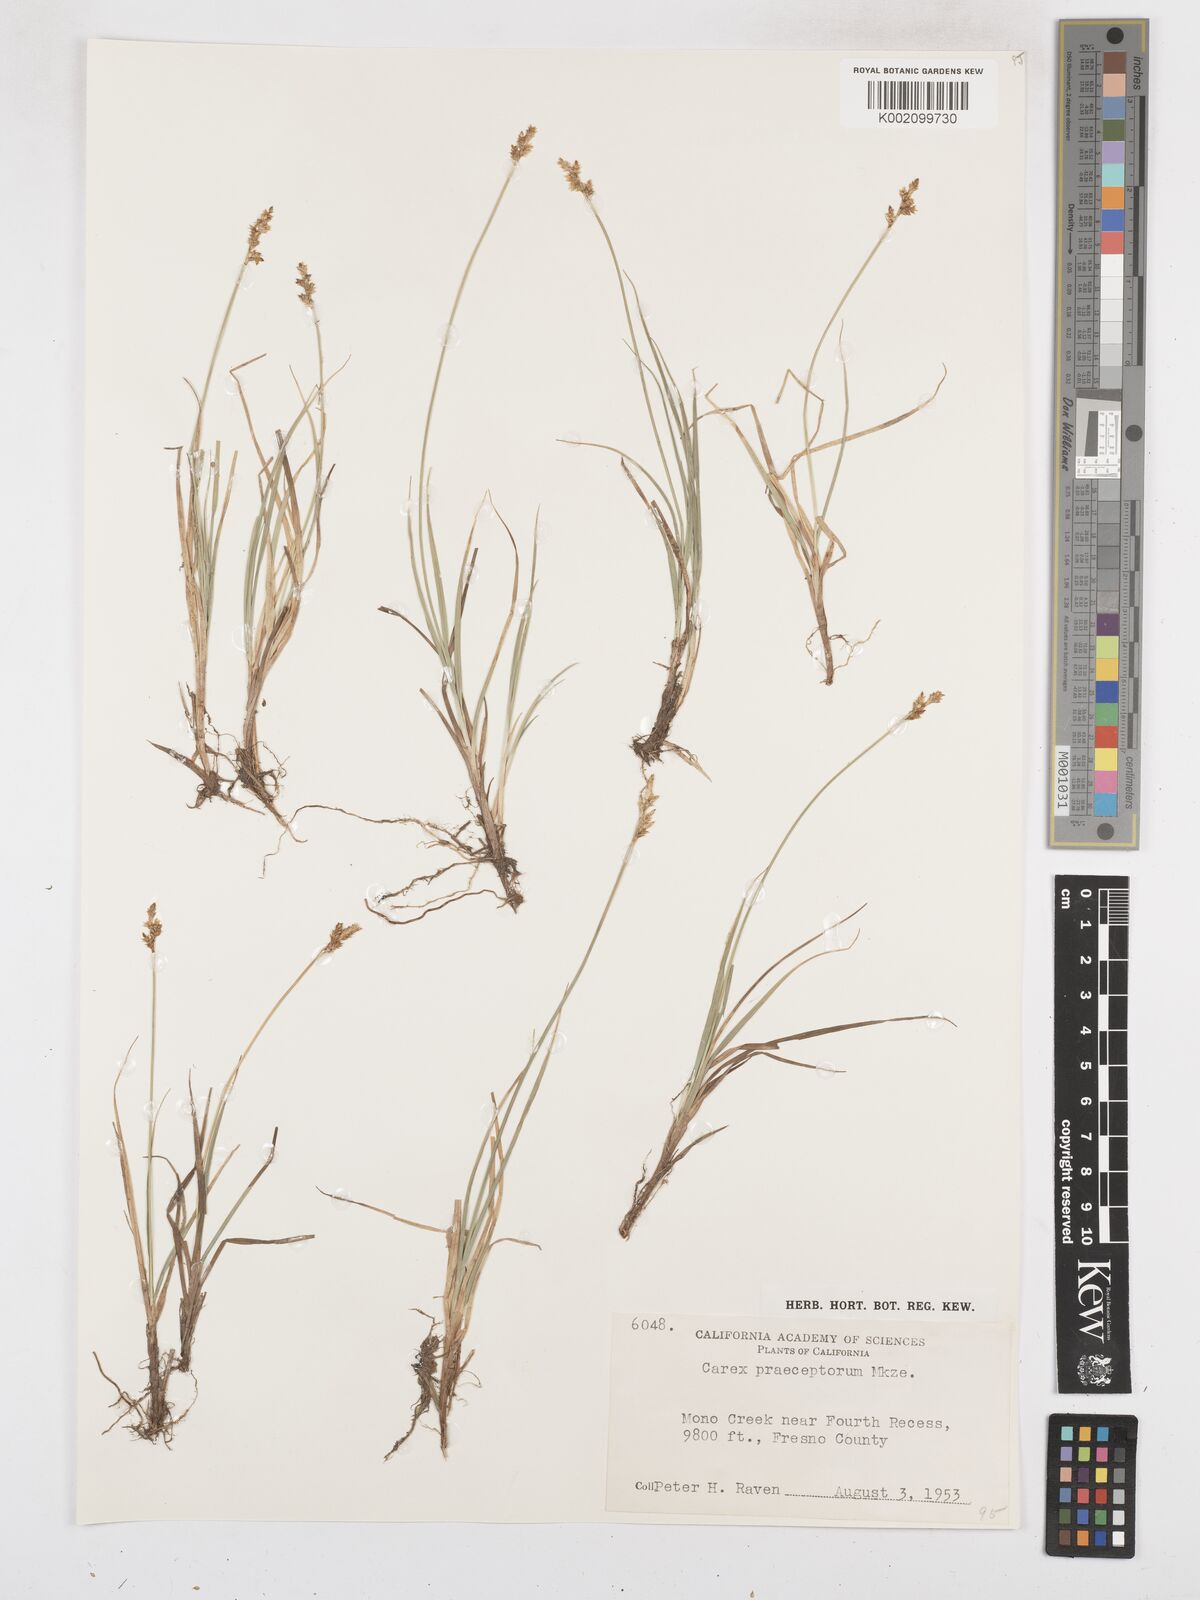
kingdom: Plantae
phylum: Tracheophyta
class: Liliopsida
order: Poales
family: Cyperaceae
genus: Carex
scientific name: Carex praeceptorum
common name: Early sedge
